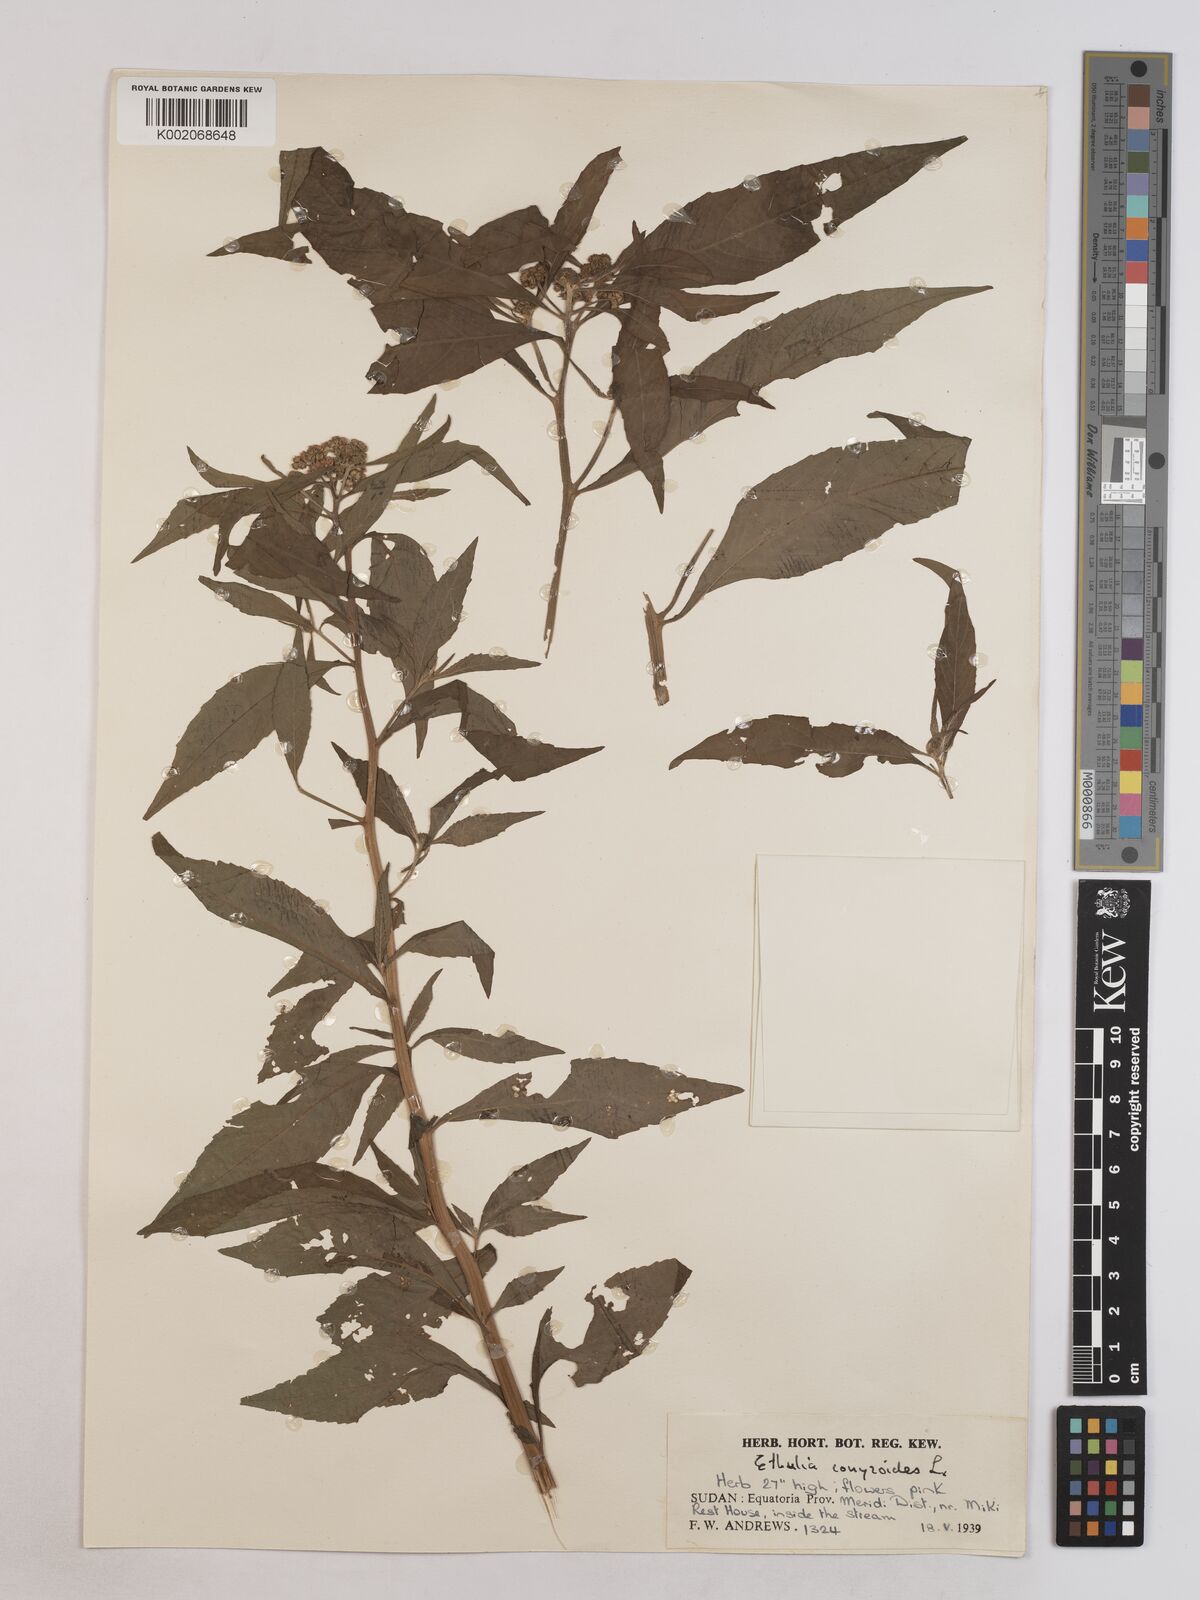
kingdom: Plantae
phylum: Tracheophyta
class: Magnoliopsida
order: Asterales
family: Asteraceae
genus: Ethulia
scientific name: Ethulia conyzoides
